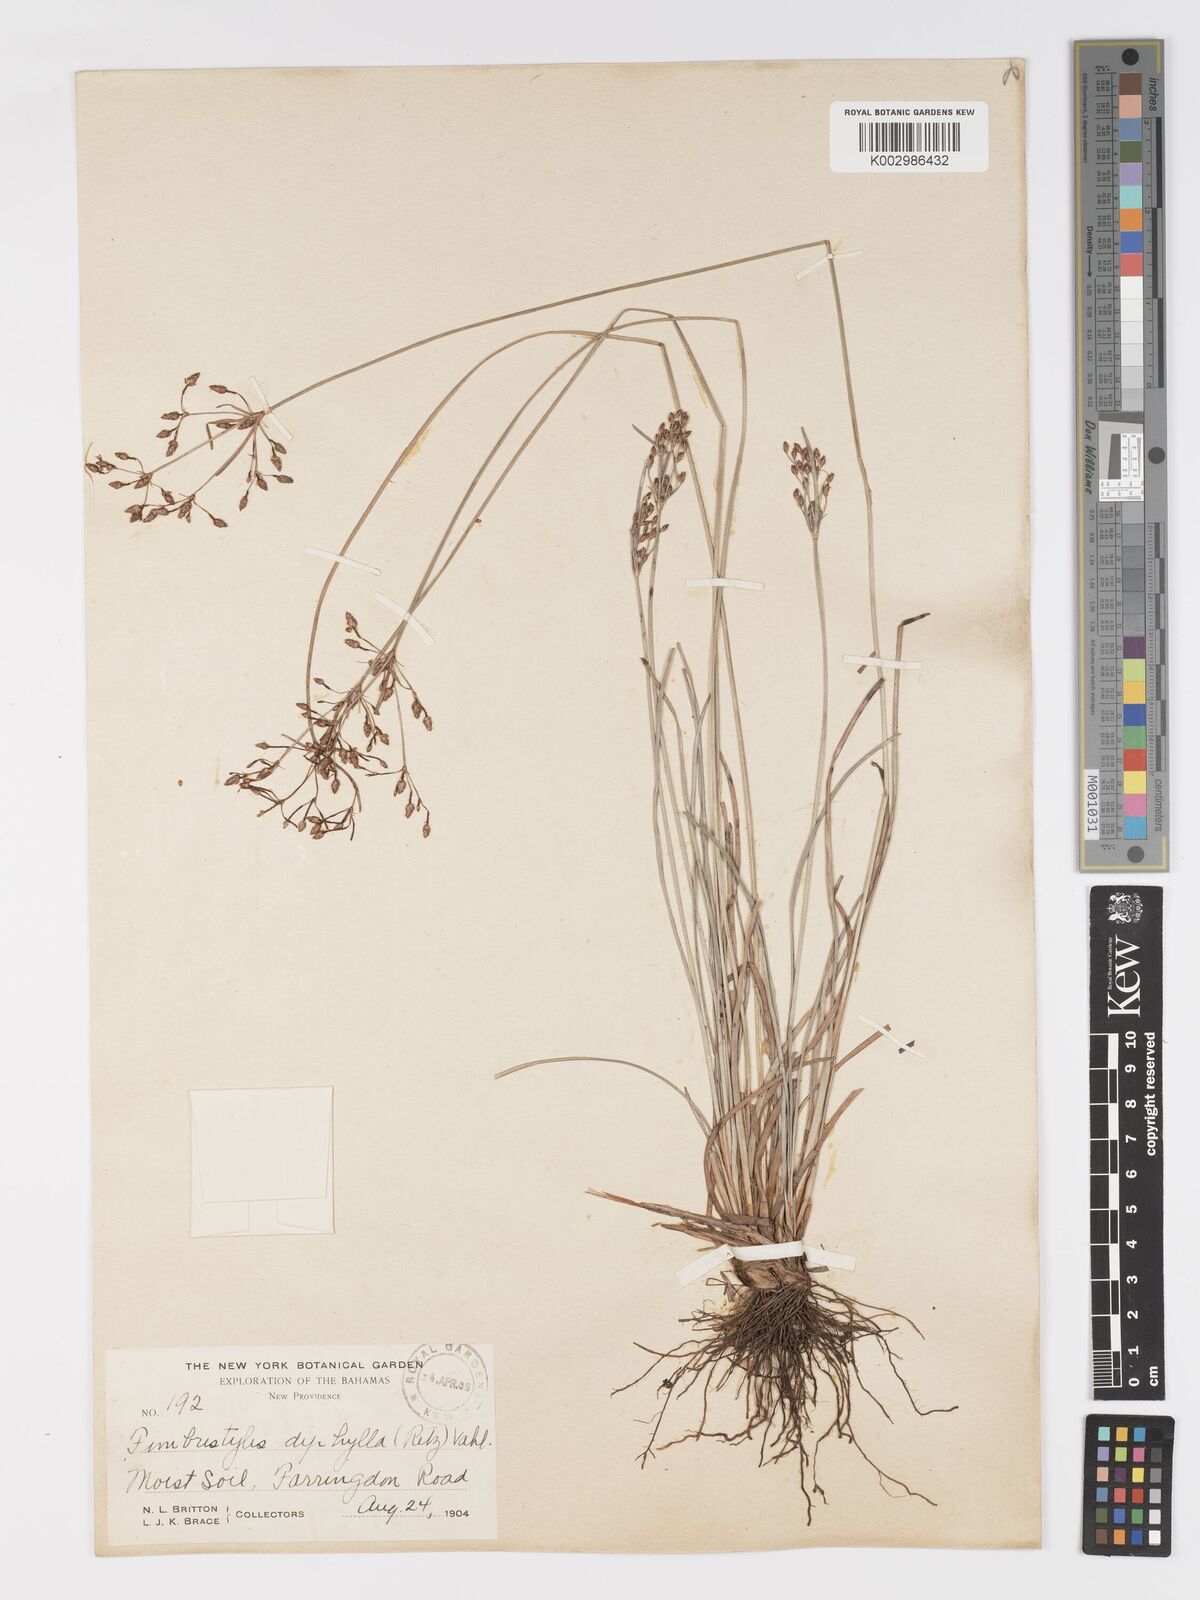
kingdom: Plantae
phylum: Tracheophyta
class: Liliopsida
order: Poales
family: Cyperaceae
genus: Fimbristylis
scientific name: Fimbristylis dichotoma
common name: Forked fimbry
